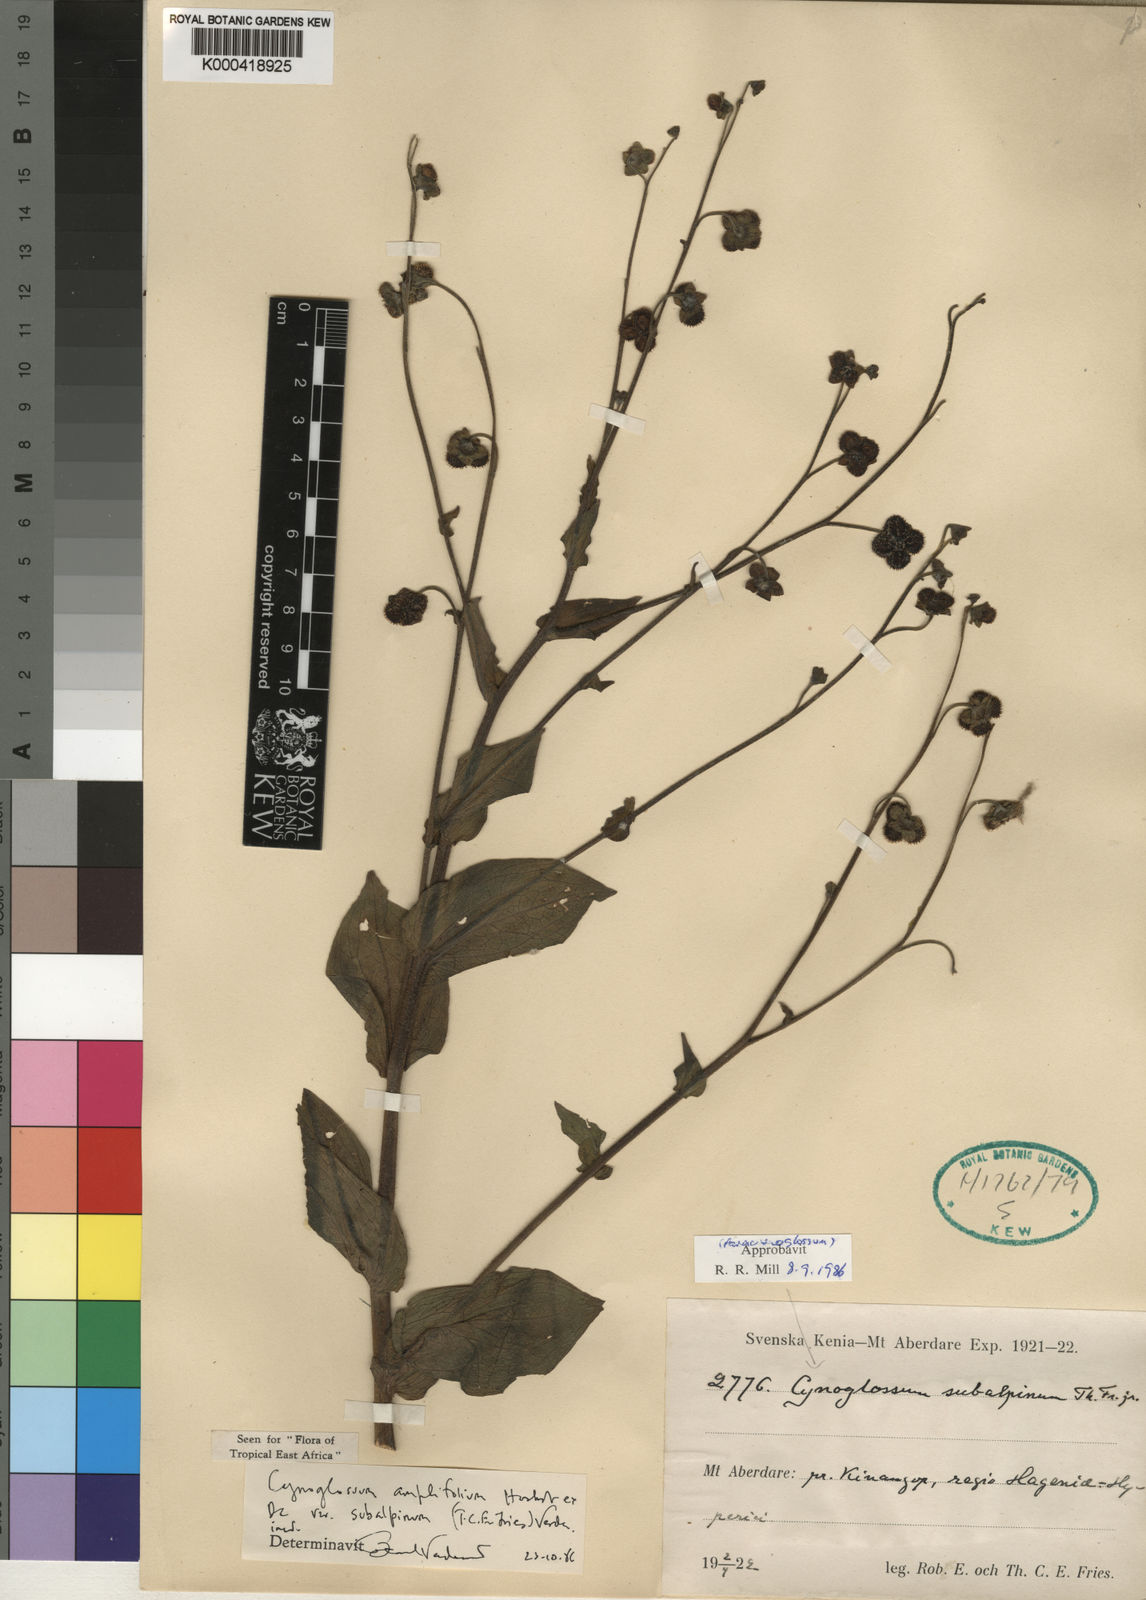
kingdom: Plantae
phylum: Tracheophyta
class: Magnoliopsida
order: Boraginales
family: Boraginaceae
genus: Cynoglossum
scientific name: Cynoglossum amplifolium
